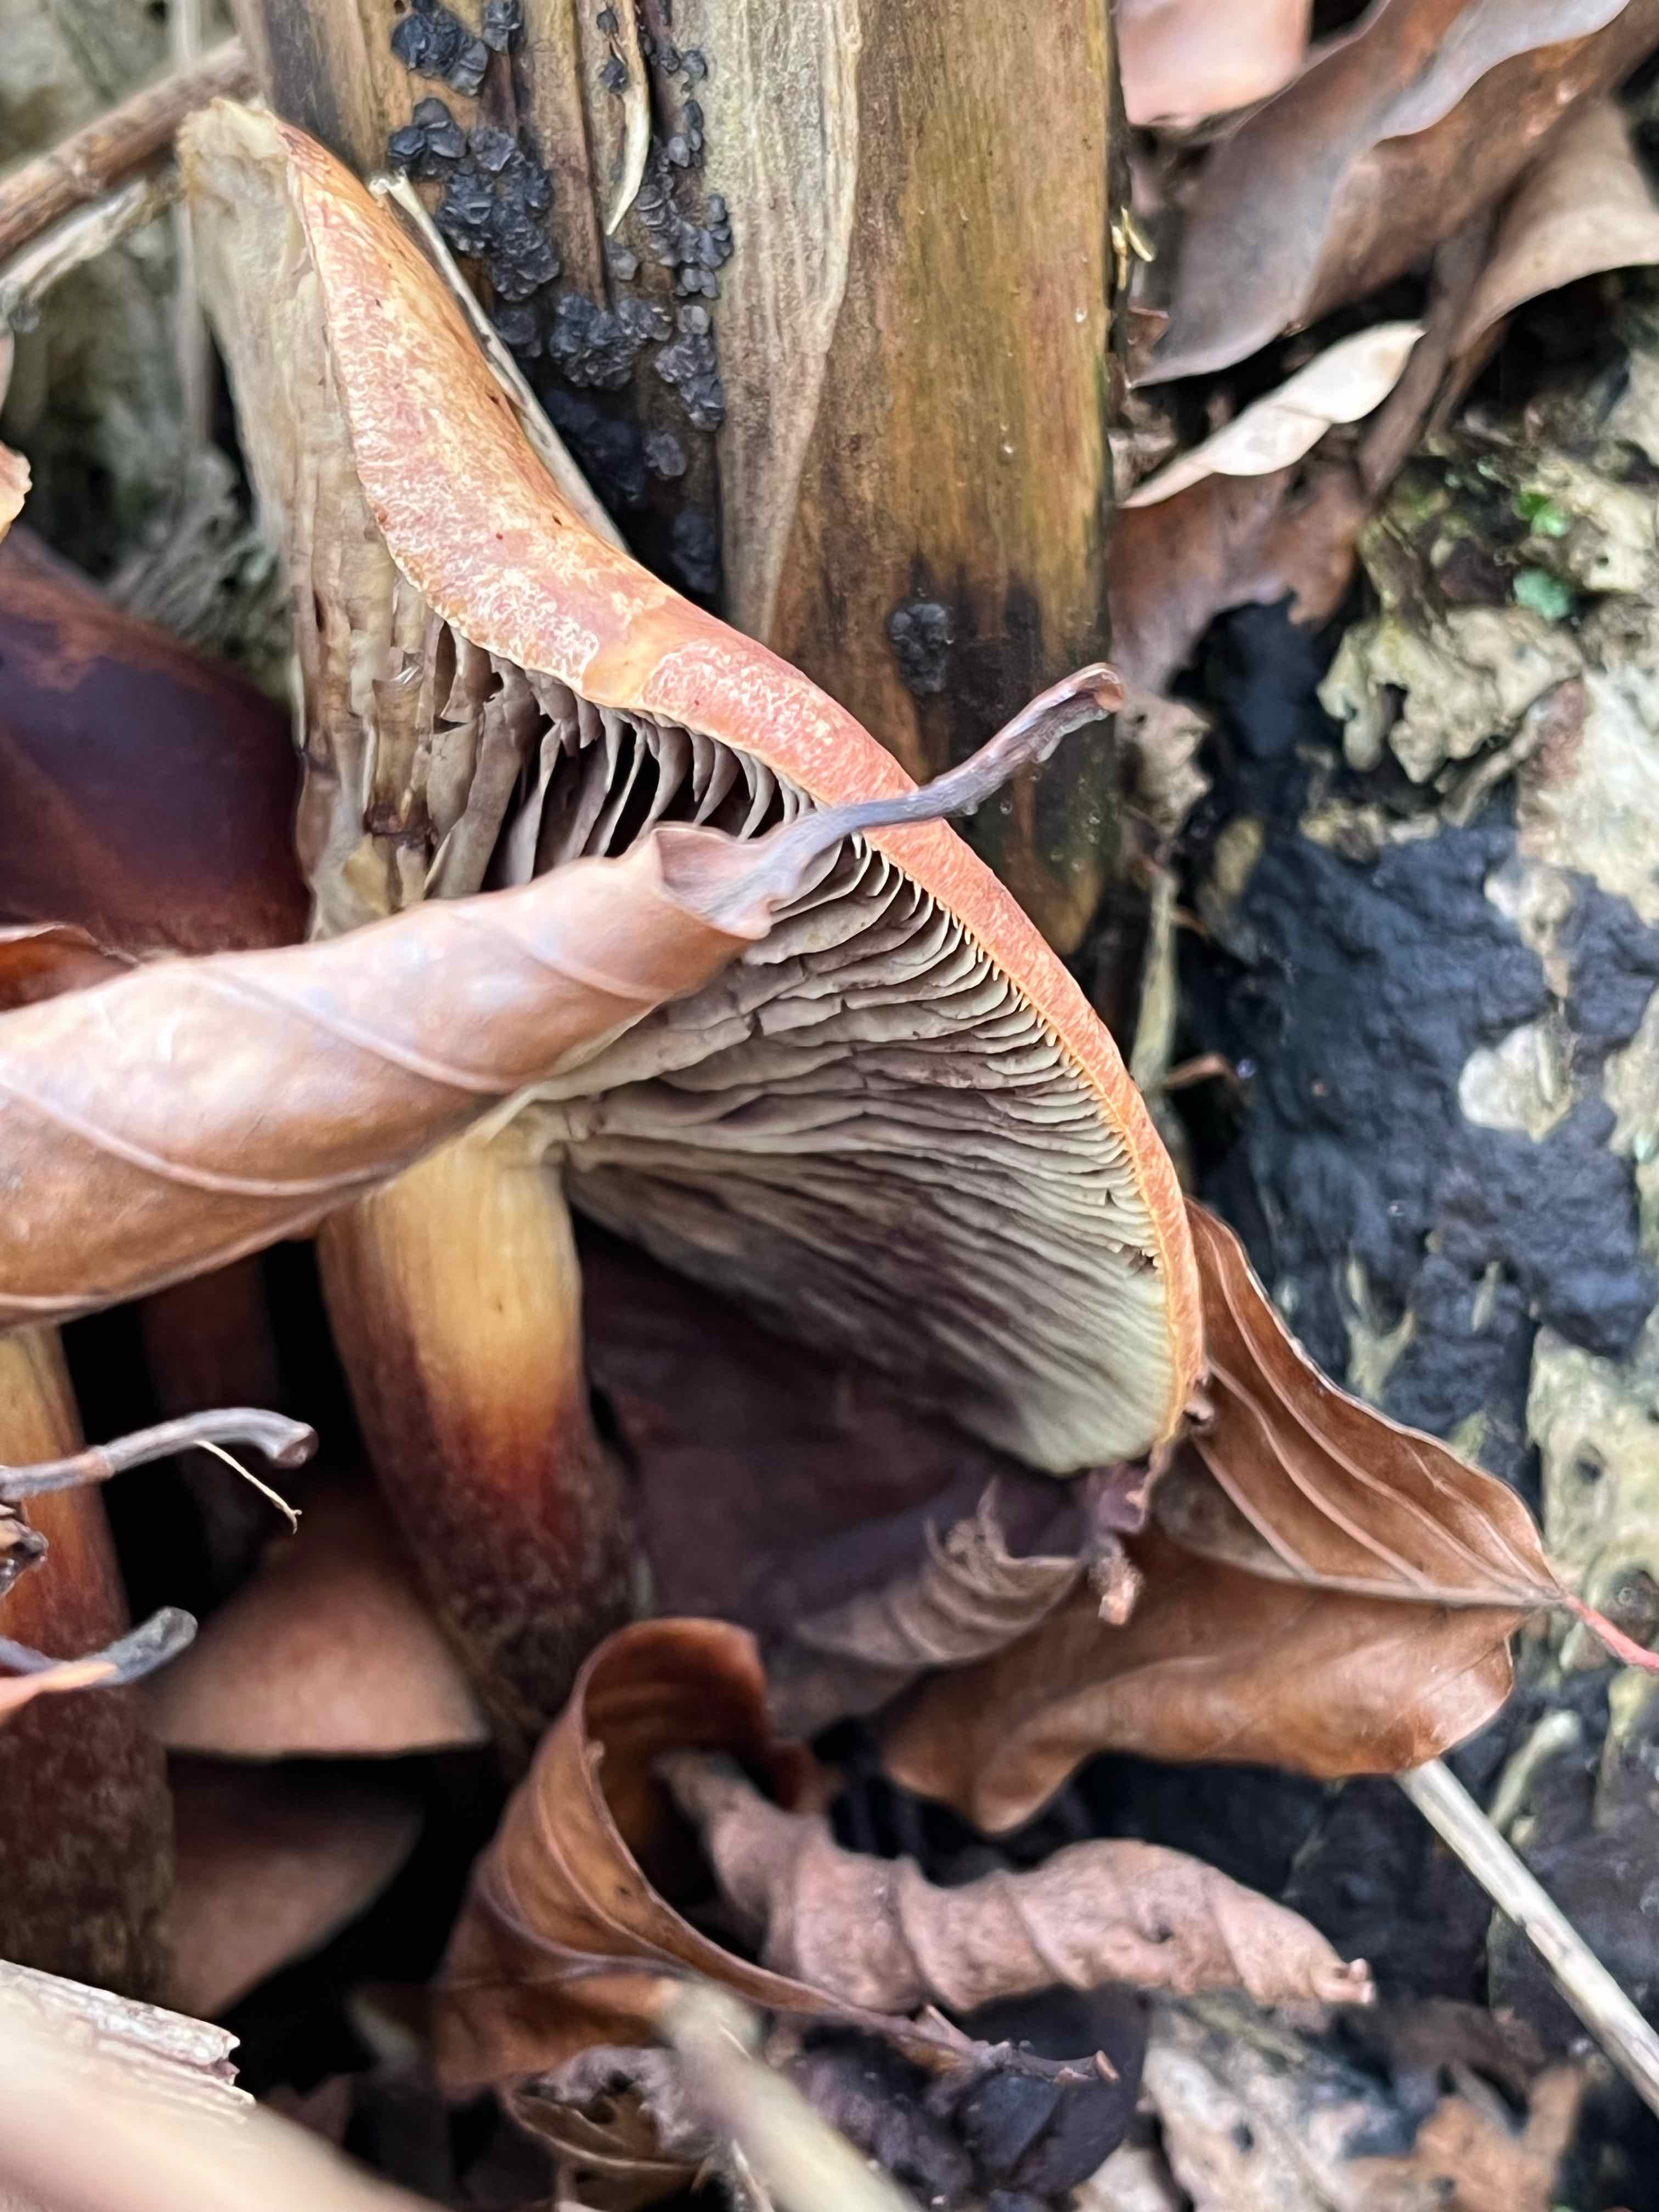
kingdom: Fungi
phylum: Basidiomycota
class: Agaricomycetes
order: Agaricales
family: Strophariaceae
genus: Hypholoma
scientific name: Hypholoma lateritium
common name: teglrød svovlhat
